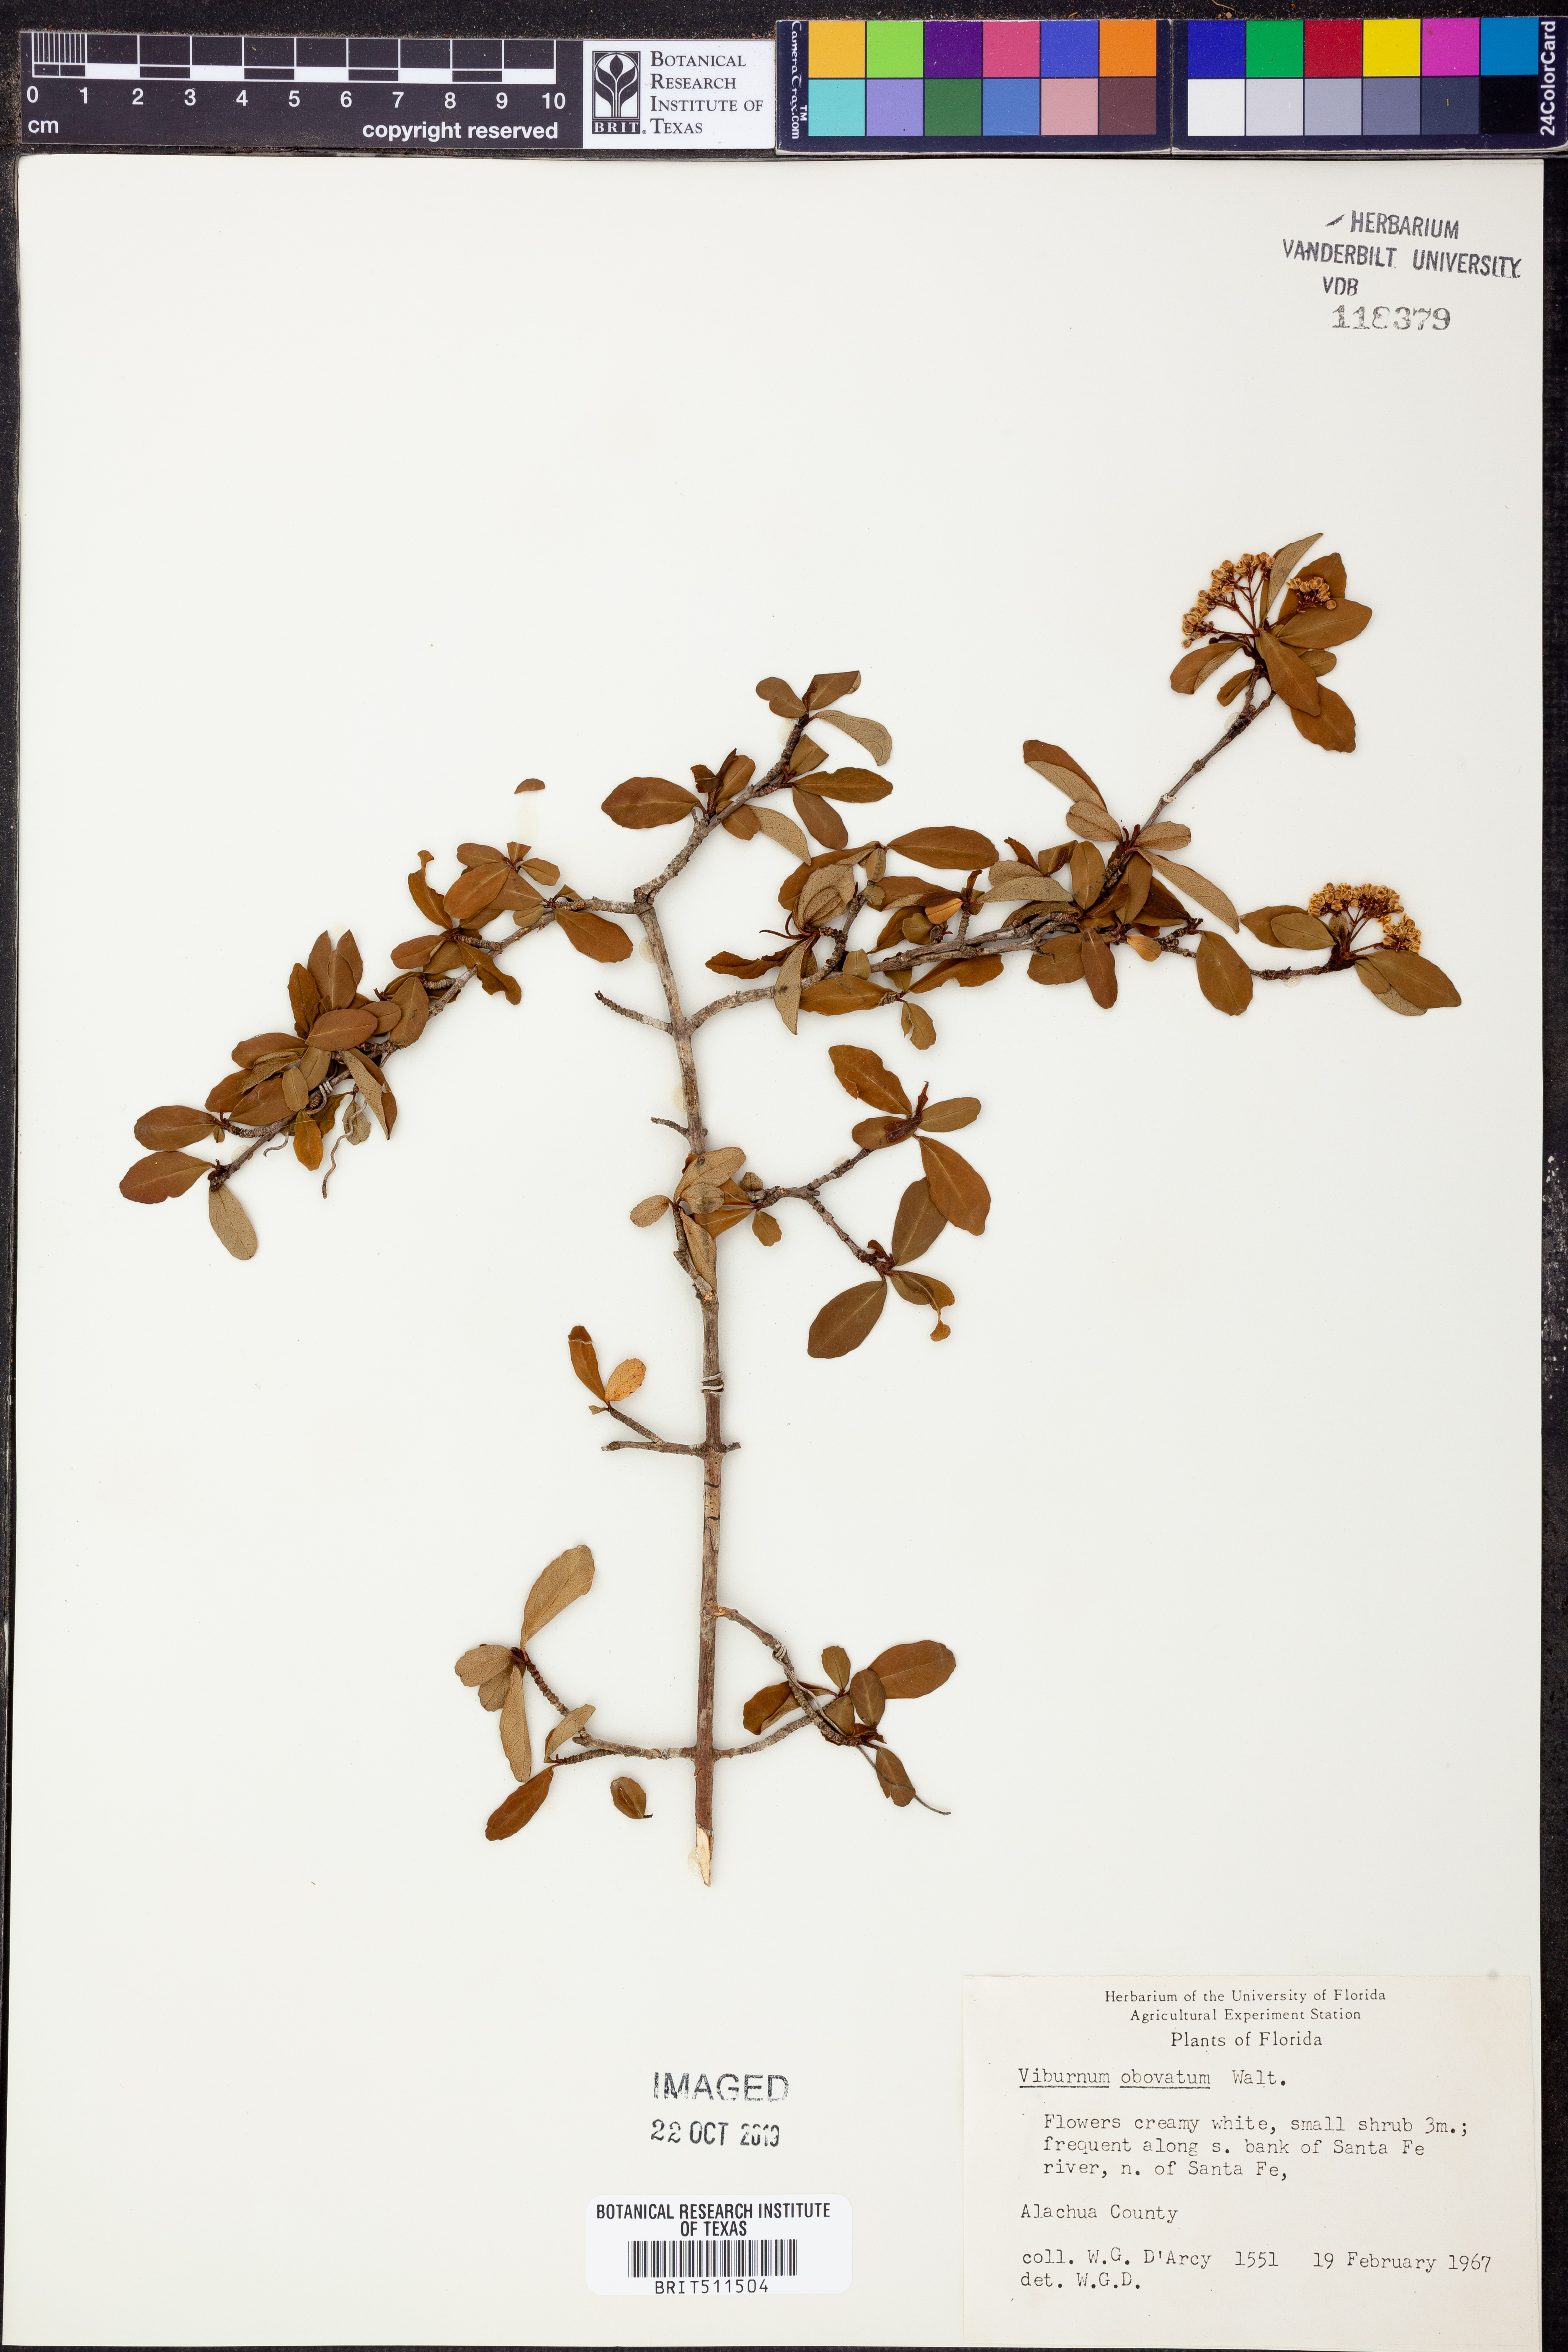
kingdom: Plantae
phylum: Tracheophyta
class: Magnoliopsida
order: Dipsacales
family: Viburnaceae
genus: Viburnum
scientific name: Viburnum obovatum
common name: Walter's viburnum
